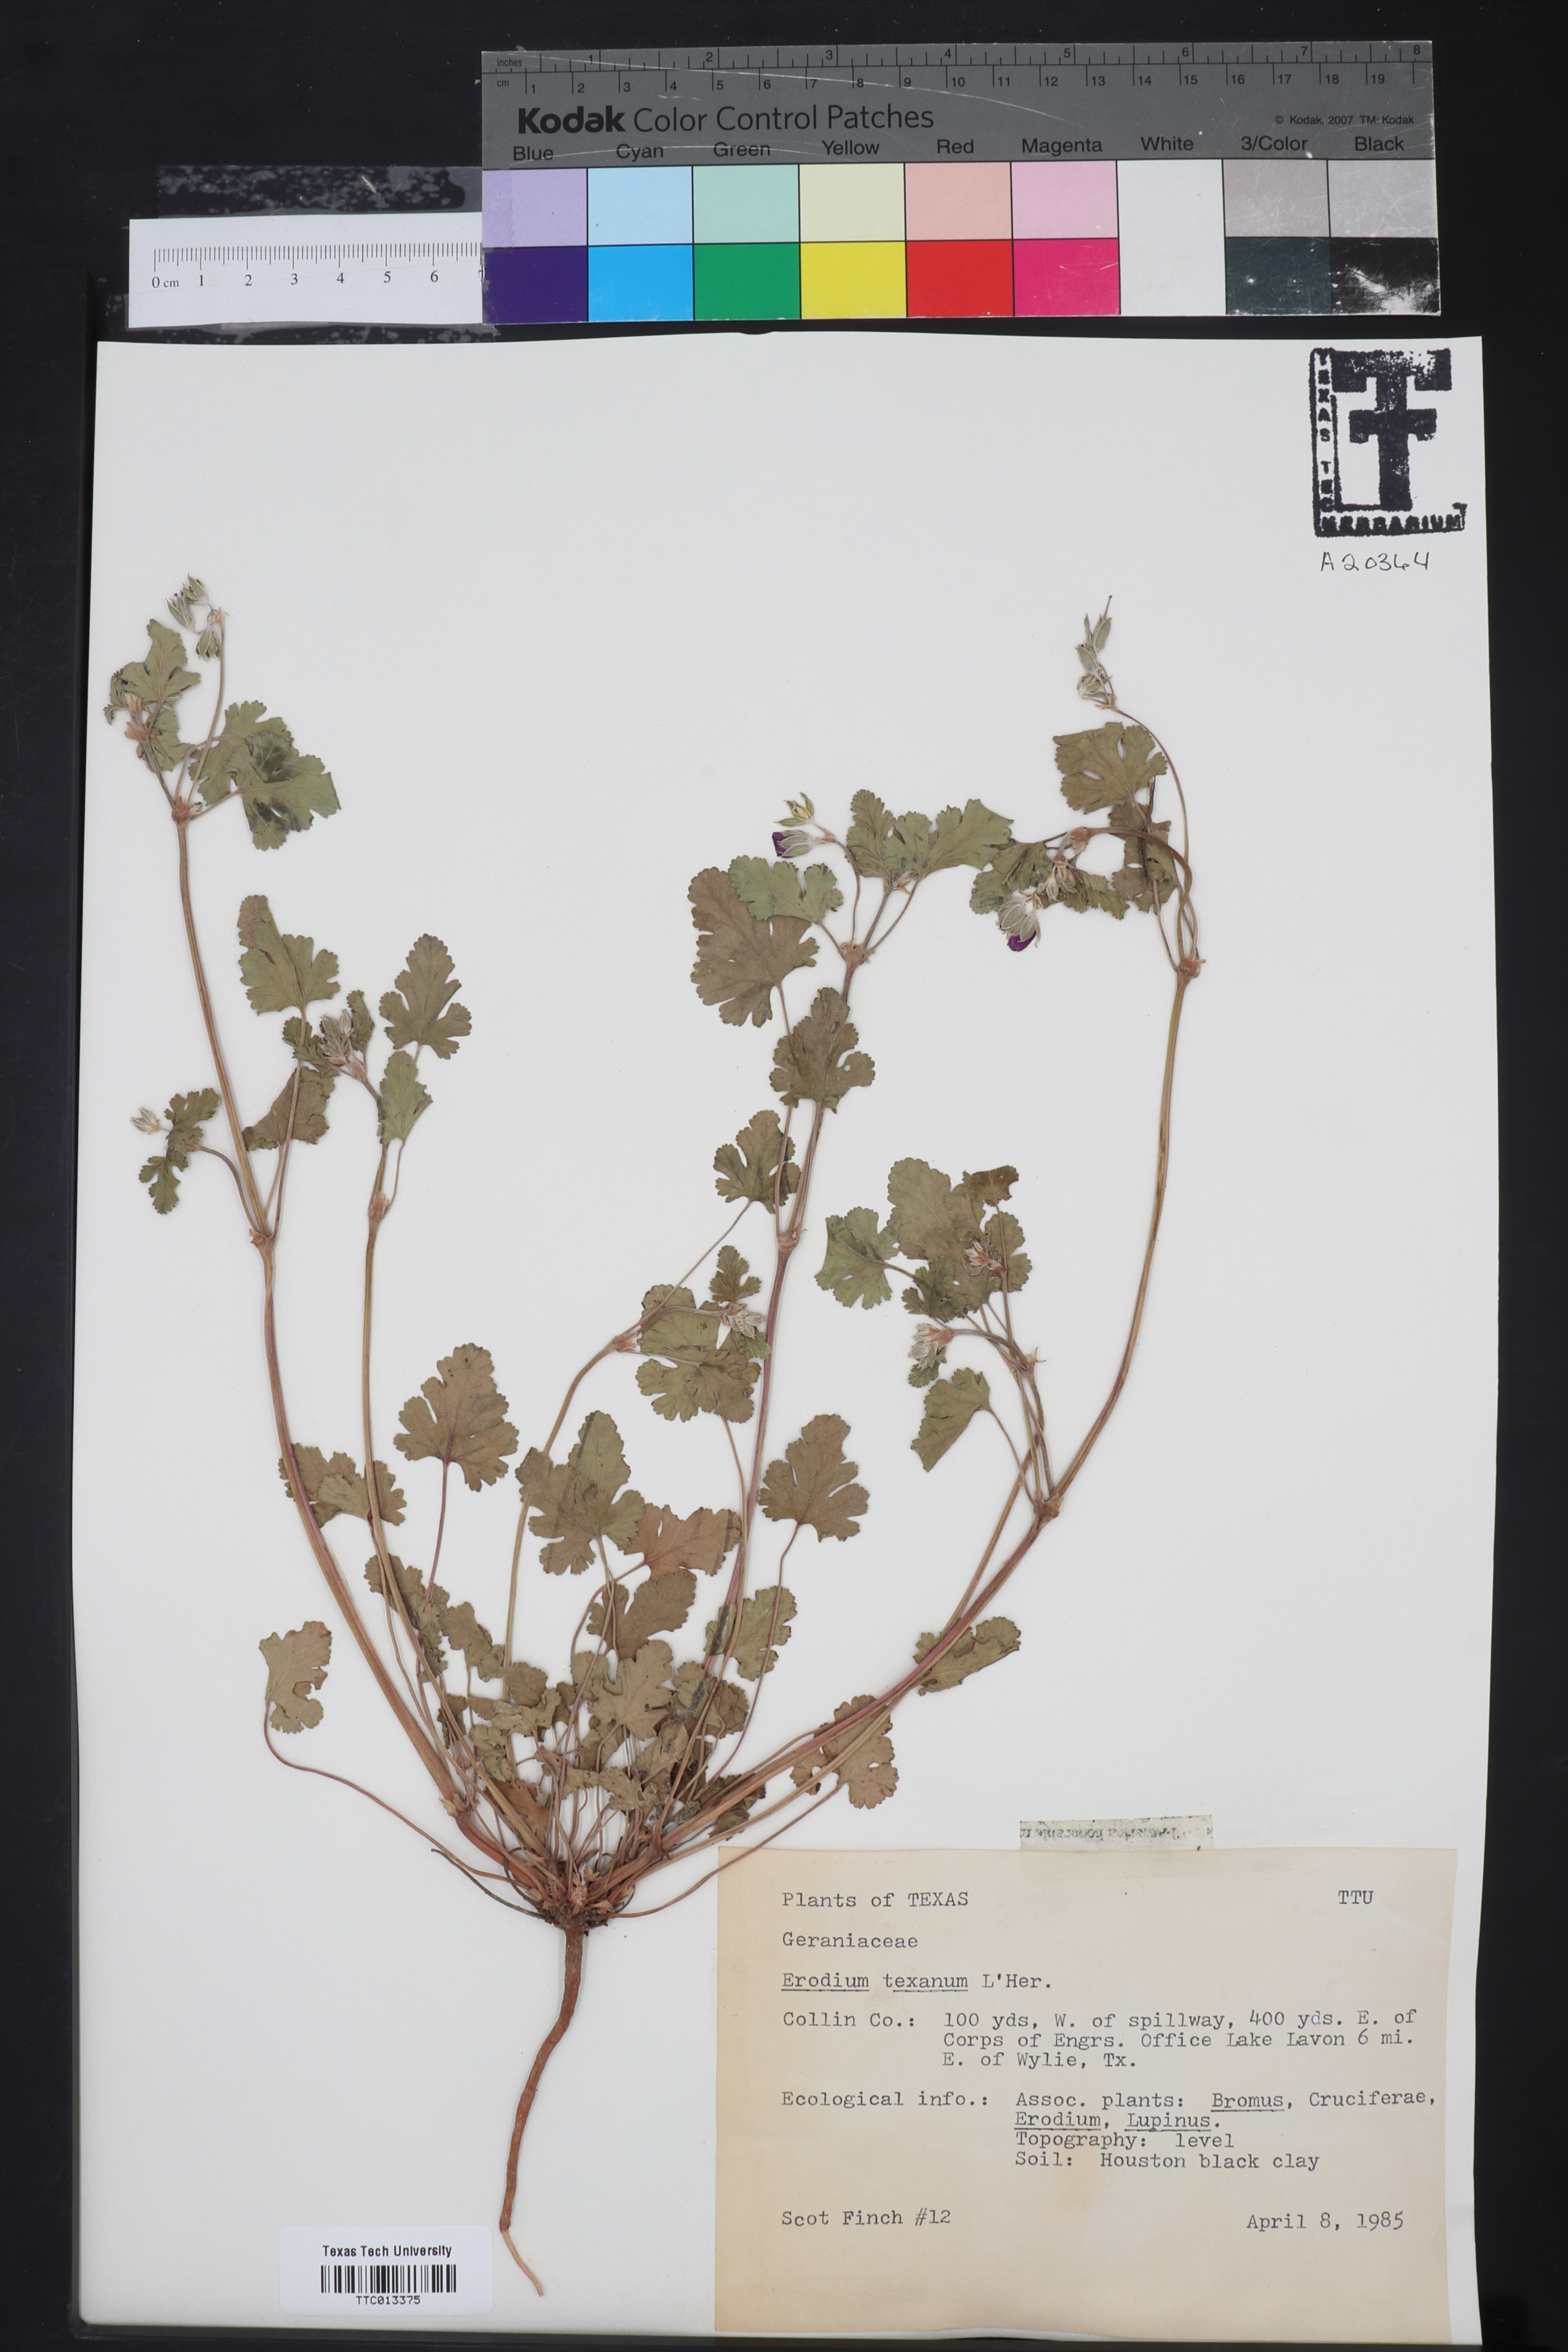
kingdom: Plantae
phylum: Tracheophyta
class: Magnoliopsida
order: Geraniales
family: Geraniaceae
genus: Erodium
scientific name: Erodium texanum
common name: Texas stork's-bill
